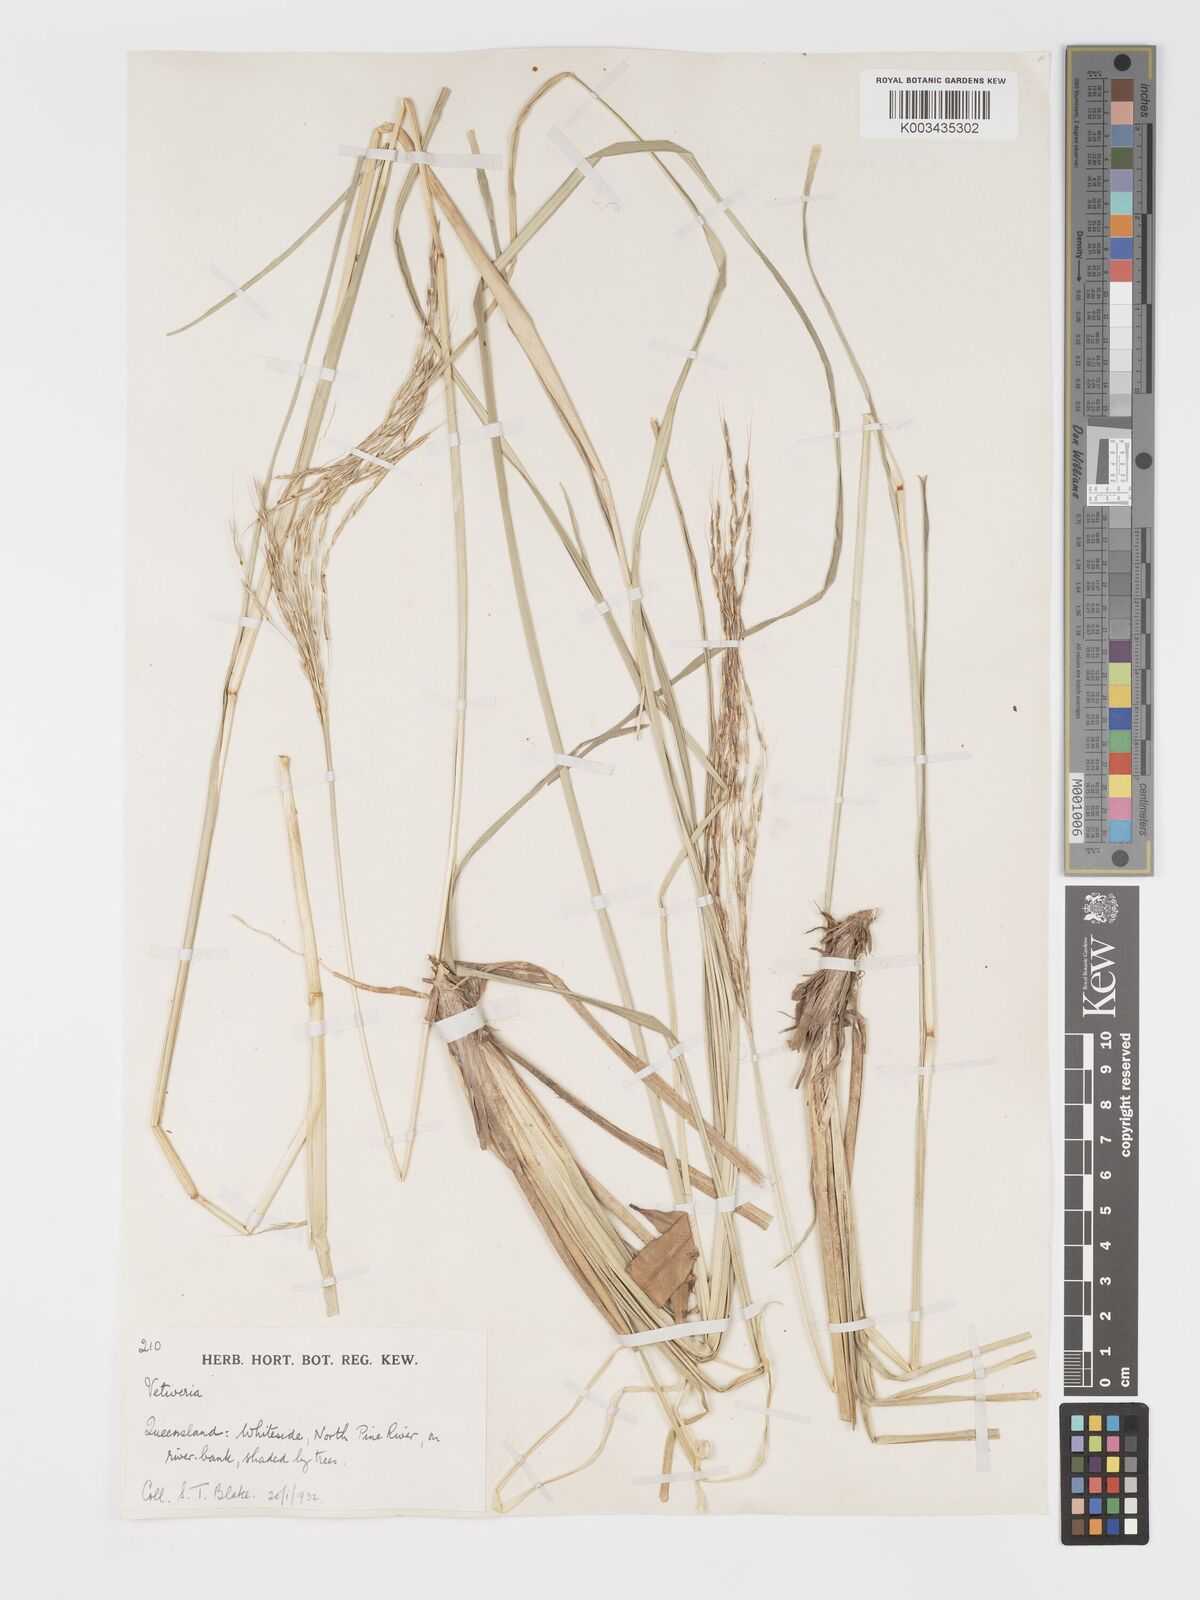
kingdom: Plantae
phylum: Tracheophyta
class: Liliopsida
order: Poales
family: Poaceae
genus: Chrysopogon
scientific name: Chrysopogon filipes
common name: Australian vetiver
